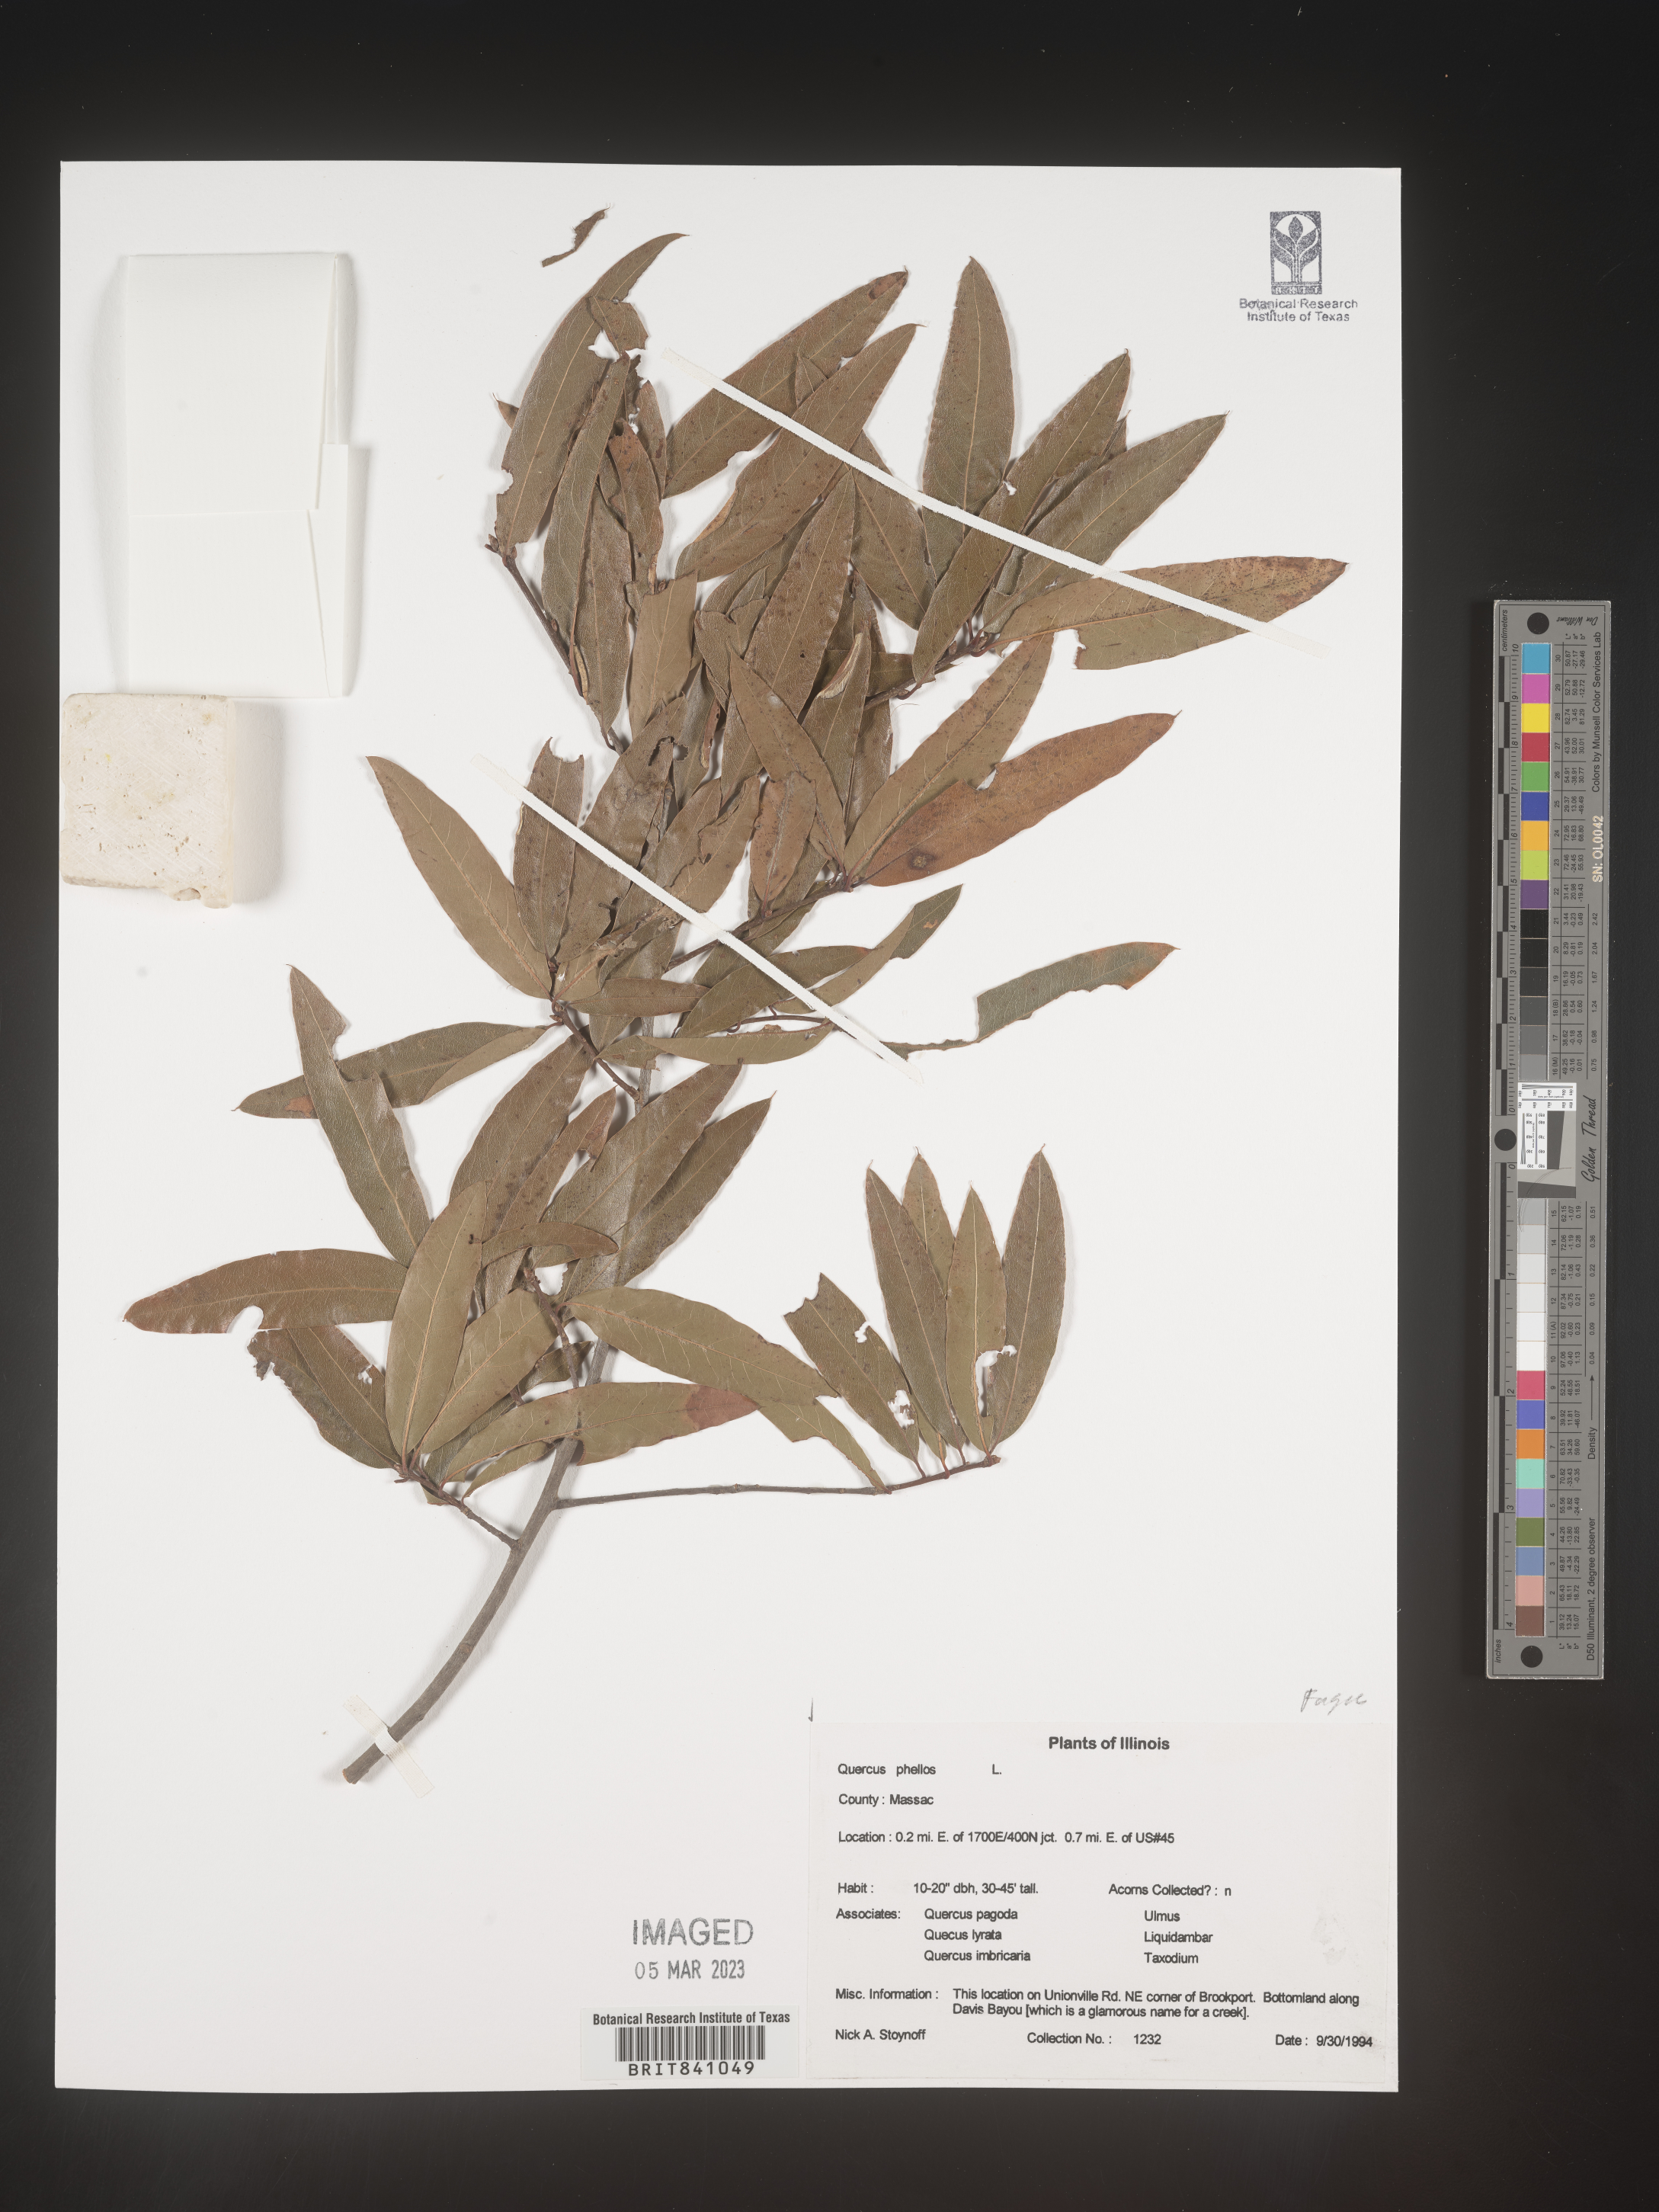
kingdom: Plantae
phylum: Tracheophyta
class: Magnoliopsida
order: Fagales
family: Fagaceae
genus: Quercus
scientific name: Quercus phellos
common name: Willow oak
